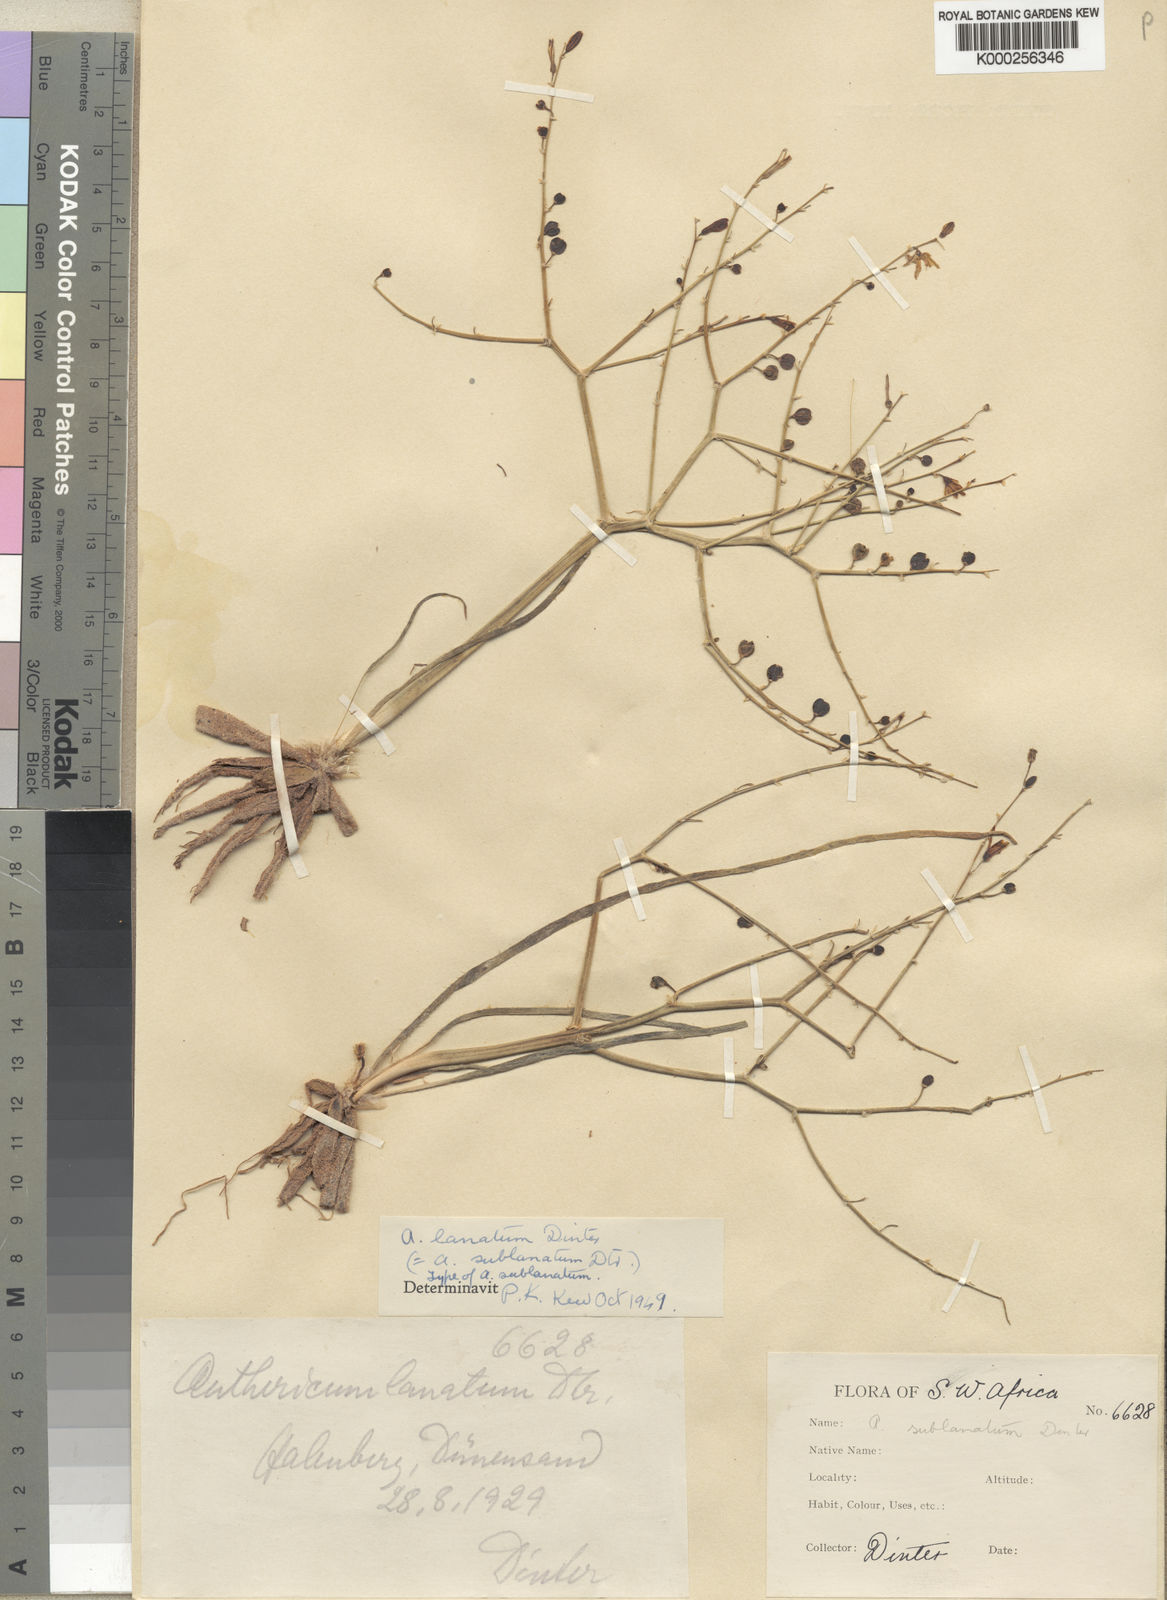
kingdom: Plantae
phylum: Tracheophyta
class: Liliopsida
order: Asparagales
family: Asphodelaceae
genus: Trachyandra
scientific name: Trachyandra lanata
